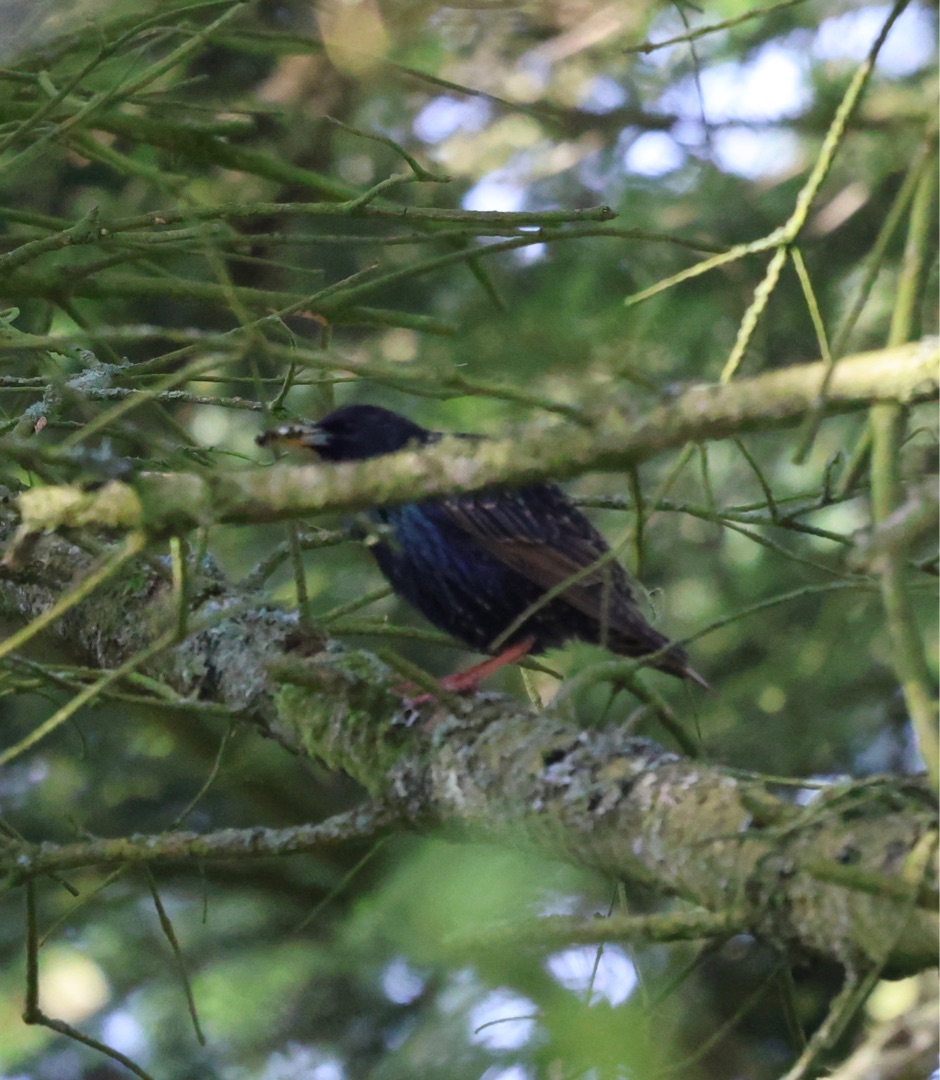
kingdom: Animalia
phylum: Chordata
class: Aves
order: Passeriformes
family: Sturnidae
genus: Sturnus
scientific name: Sturnus vulgaris
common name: Stær
